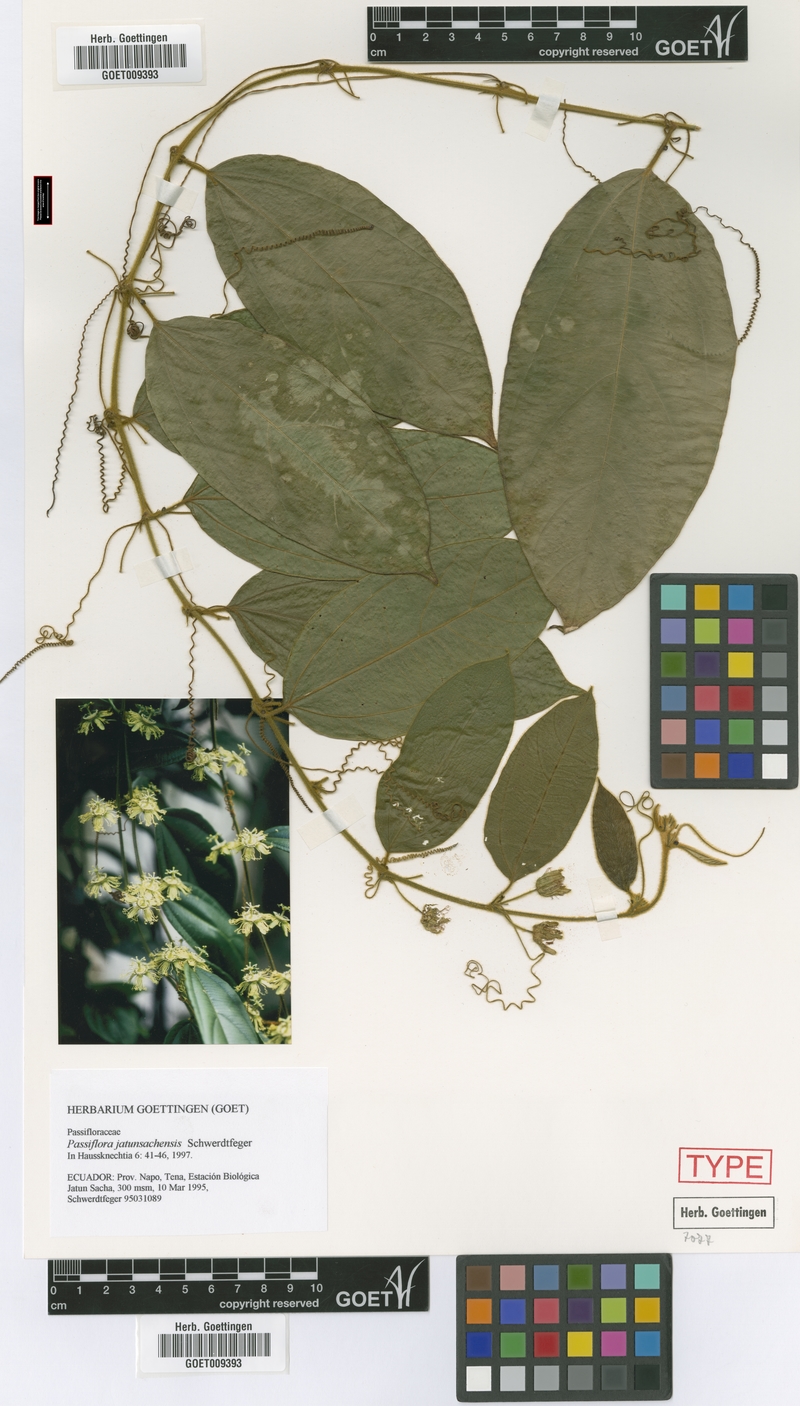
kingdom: Plantae
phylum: Tracheophyta
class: Magnoliopsida
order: Malpighiales
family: Passifloraceae
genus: Passiflora
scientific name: Passiflora jatunsachensis
